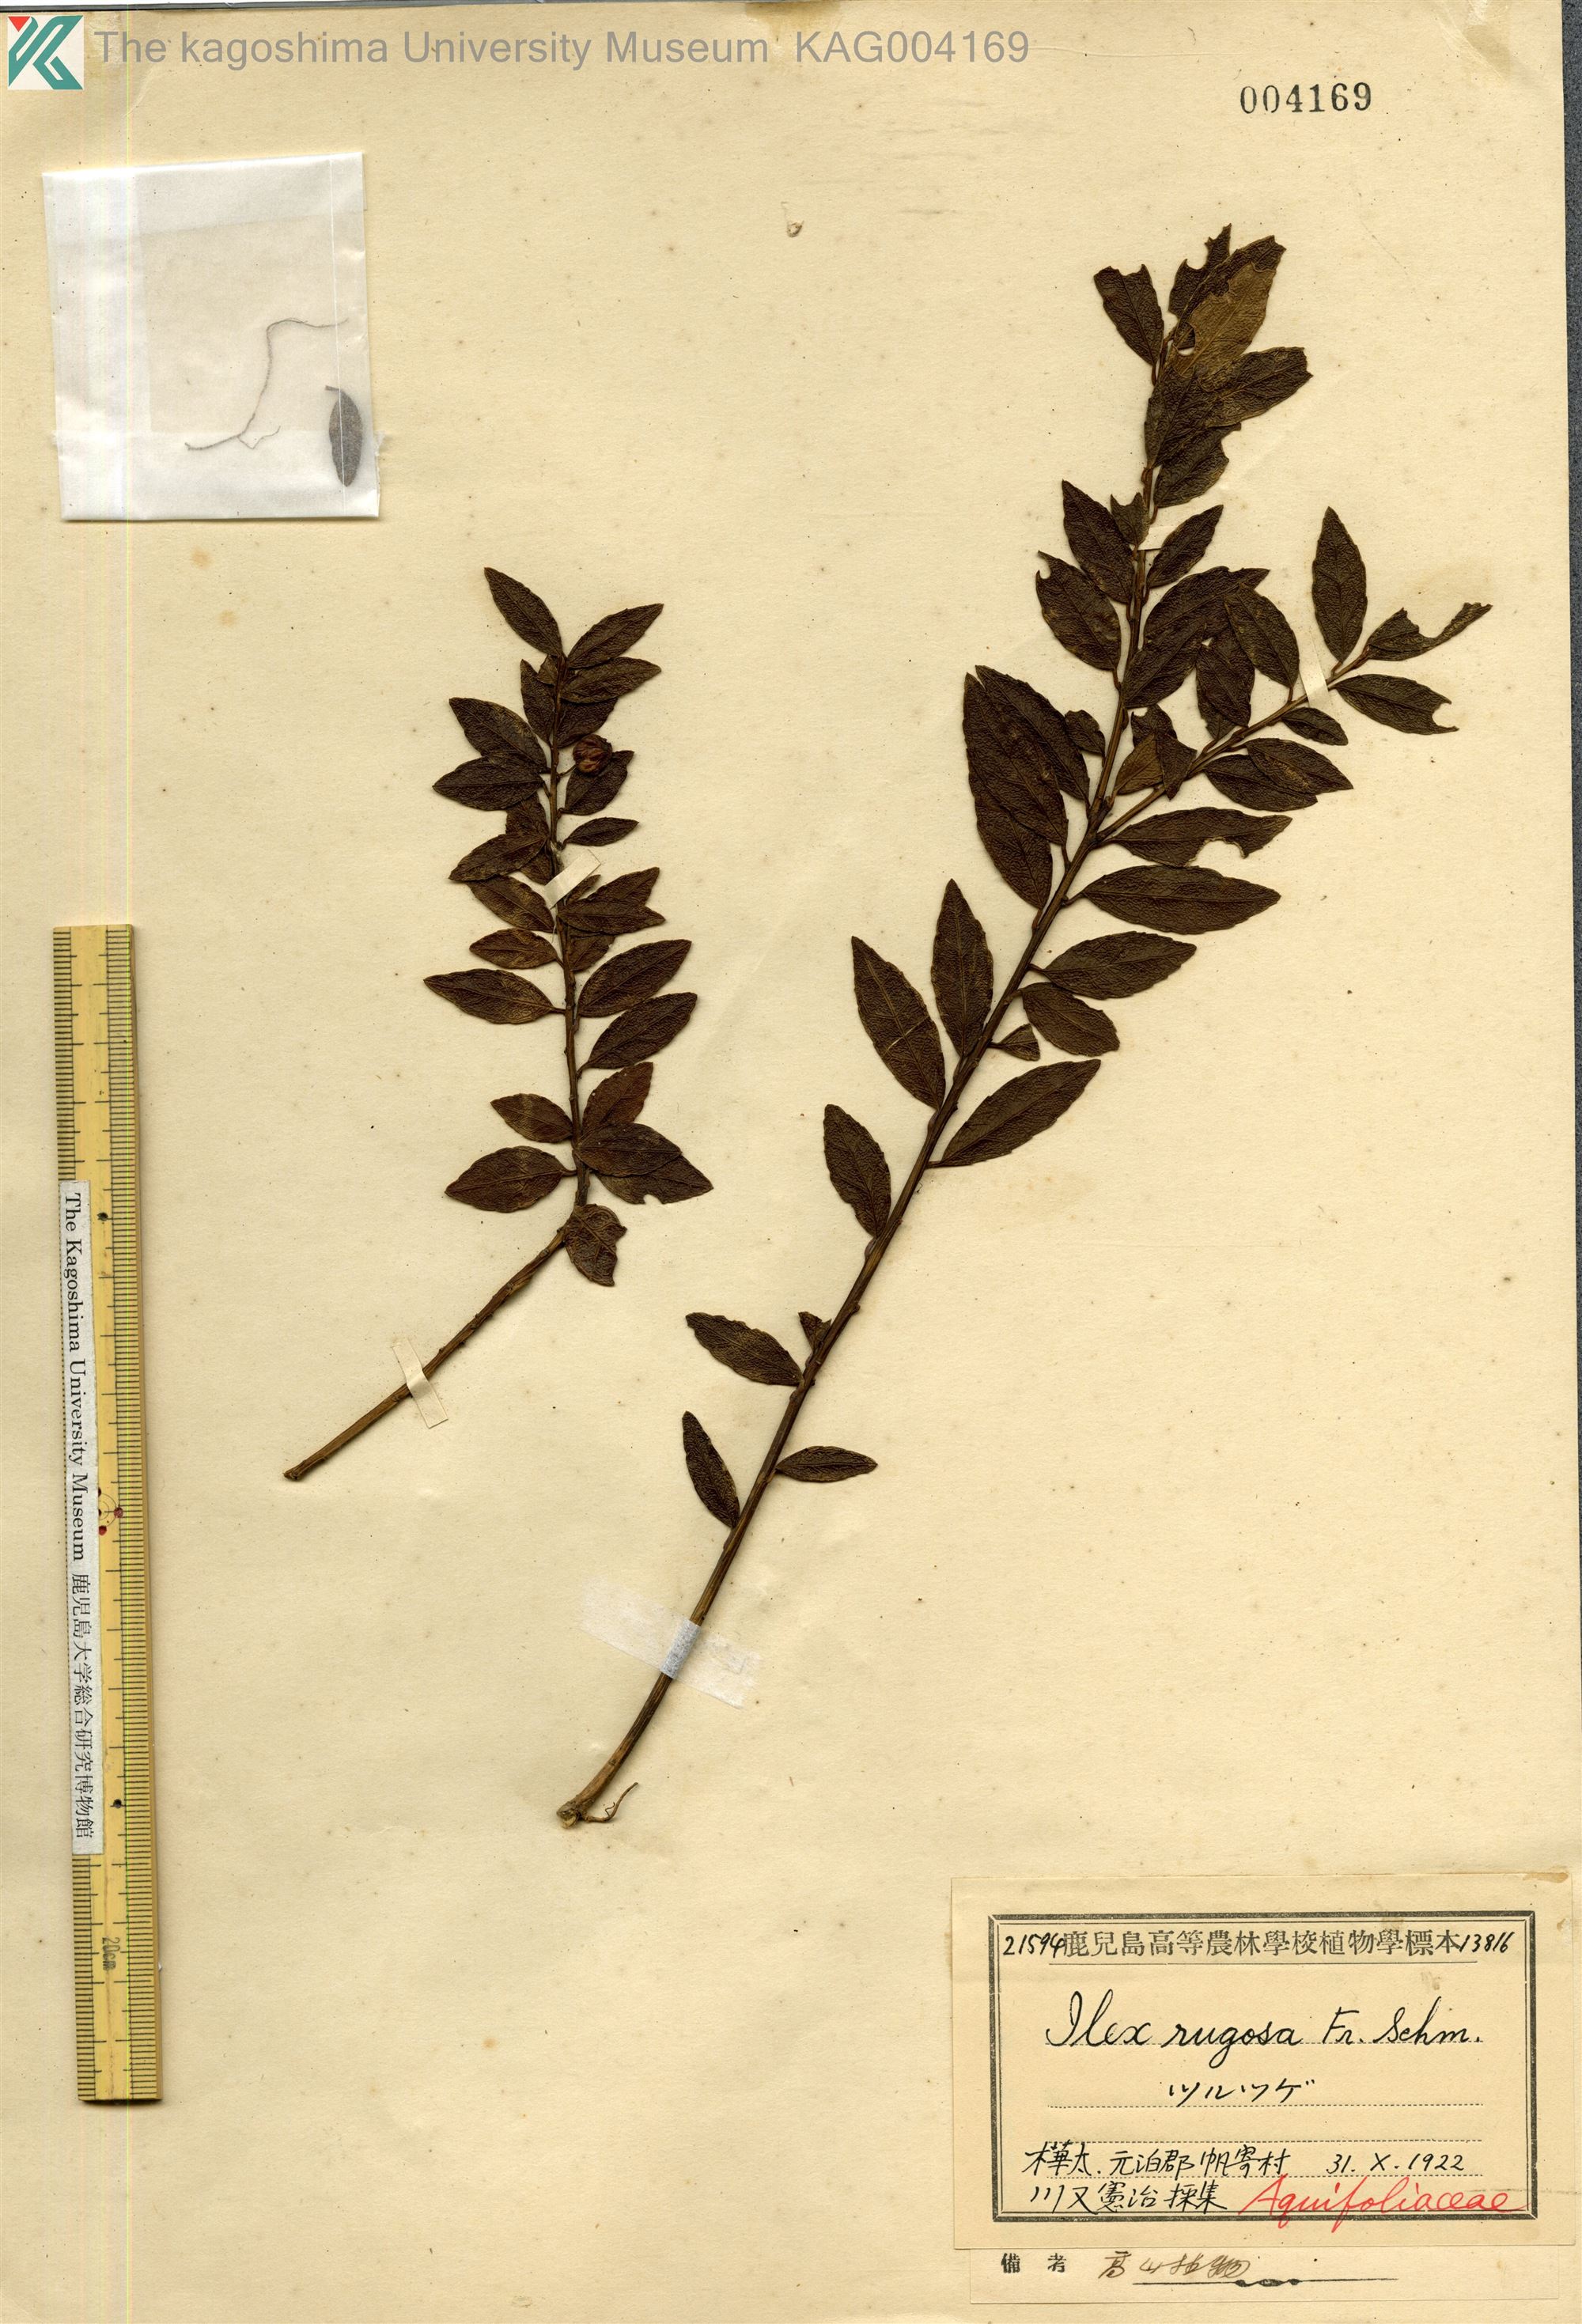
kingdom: Plantae
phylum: Tracheophyta
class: Magnoliopsida
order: Aquifoliales
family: Aquifoliaceae
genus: Ilex
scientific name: Ilex rugosa
